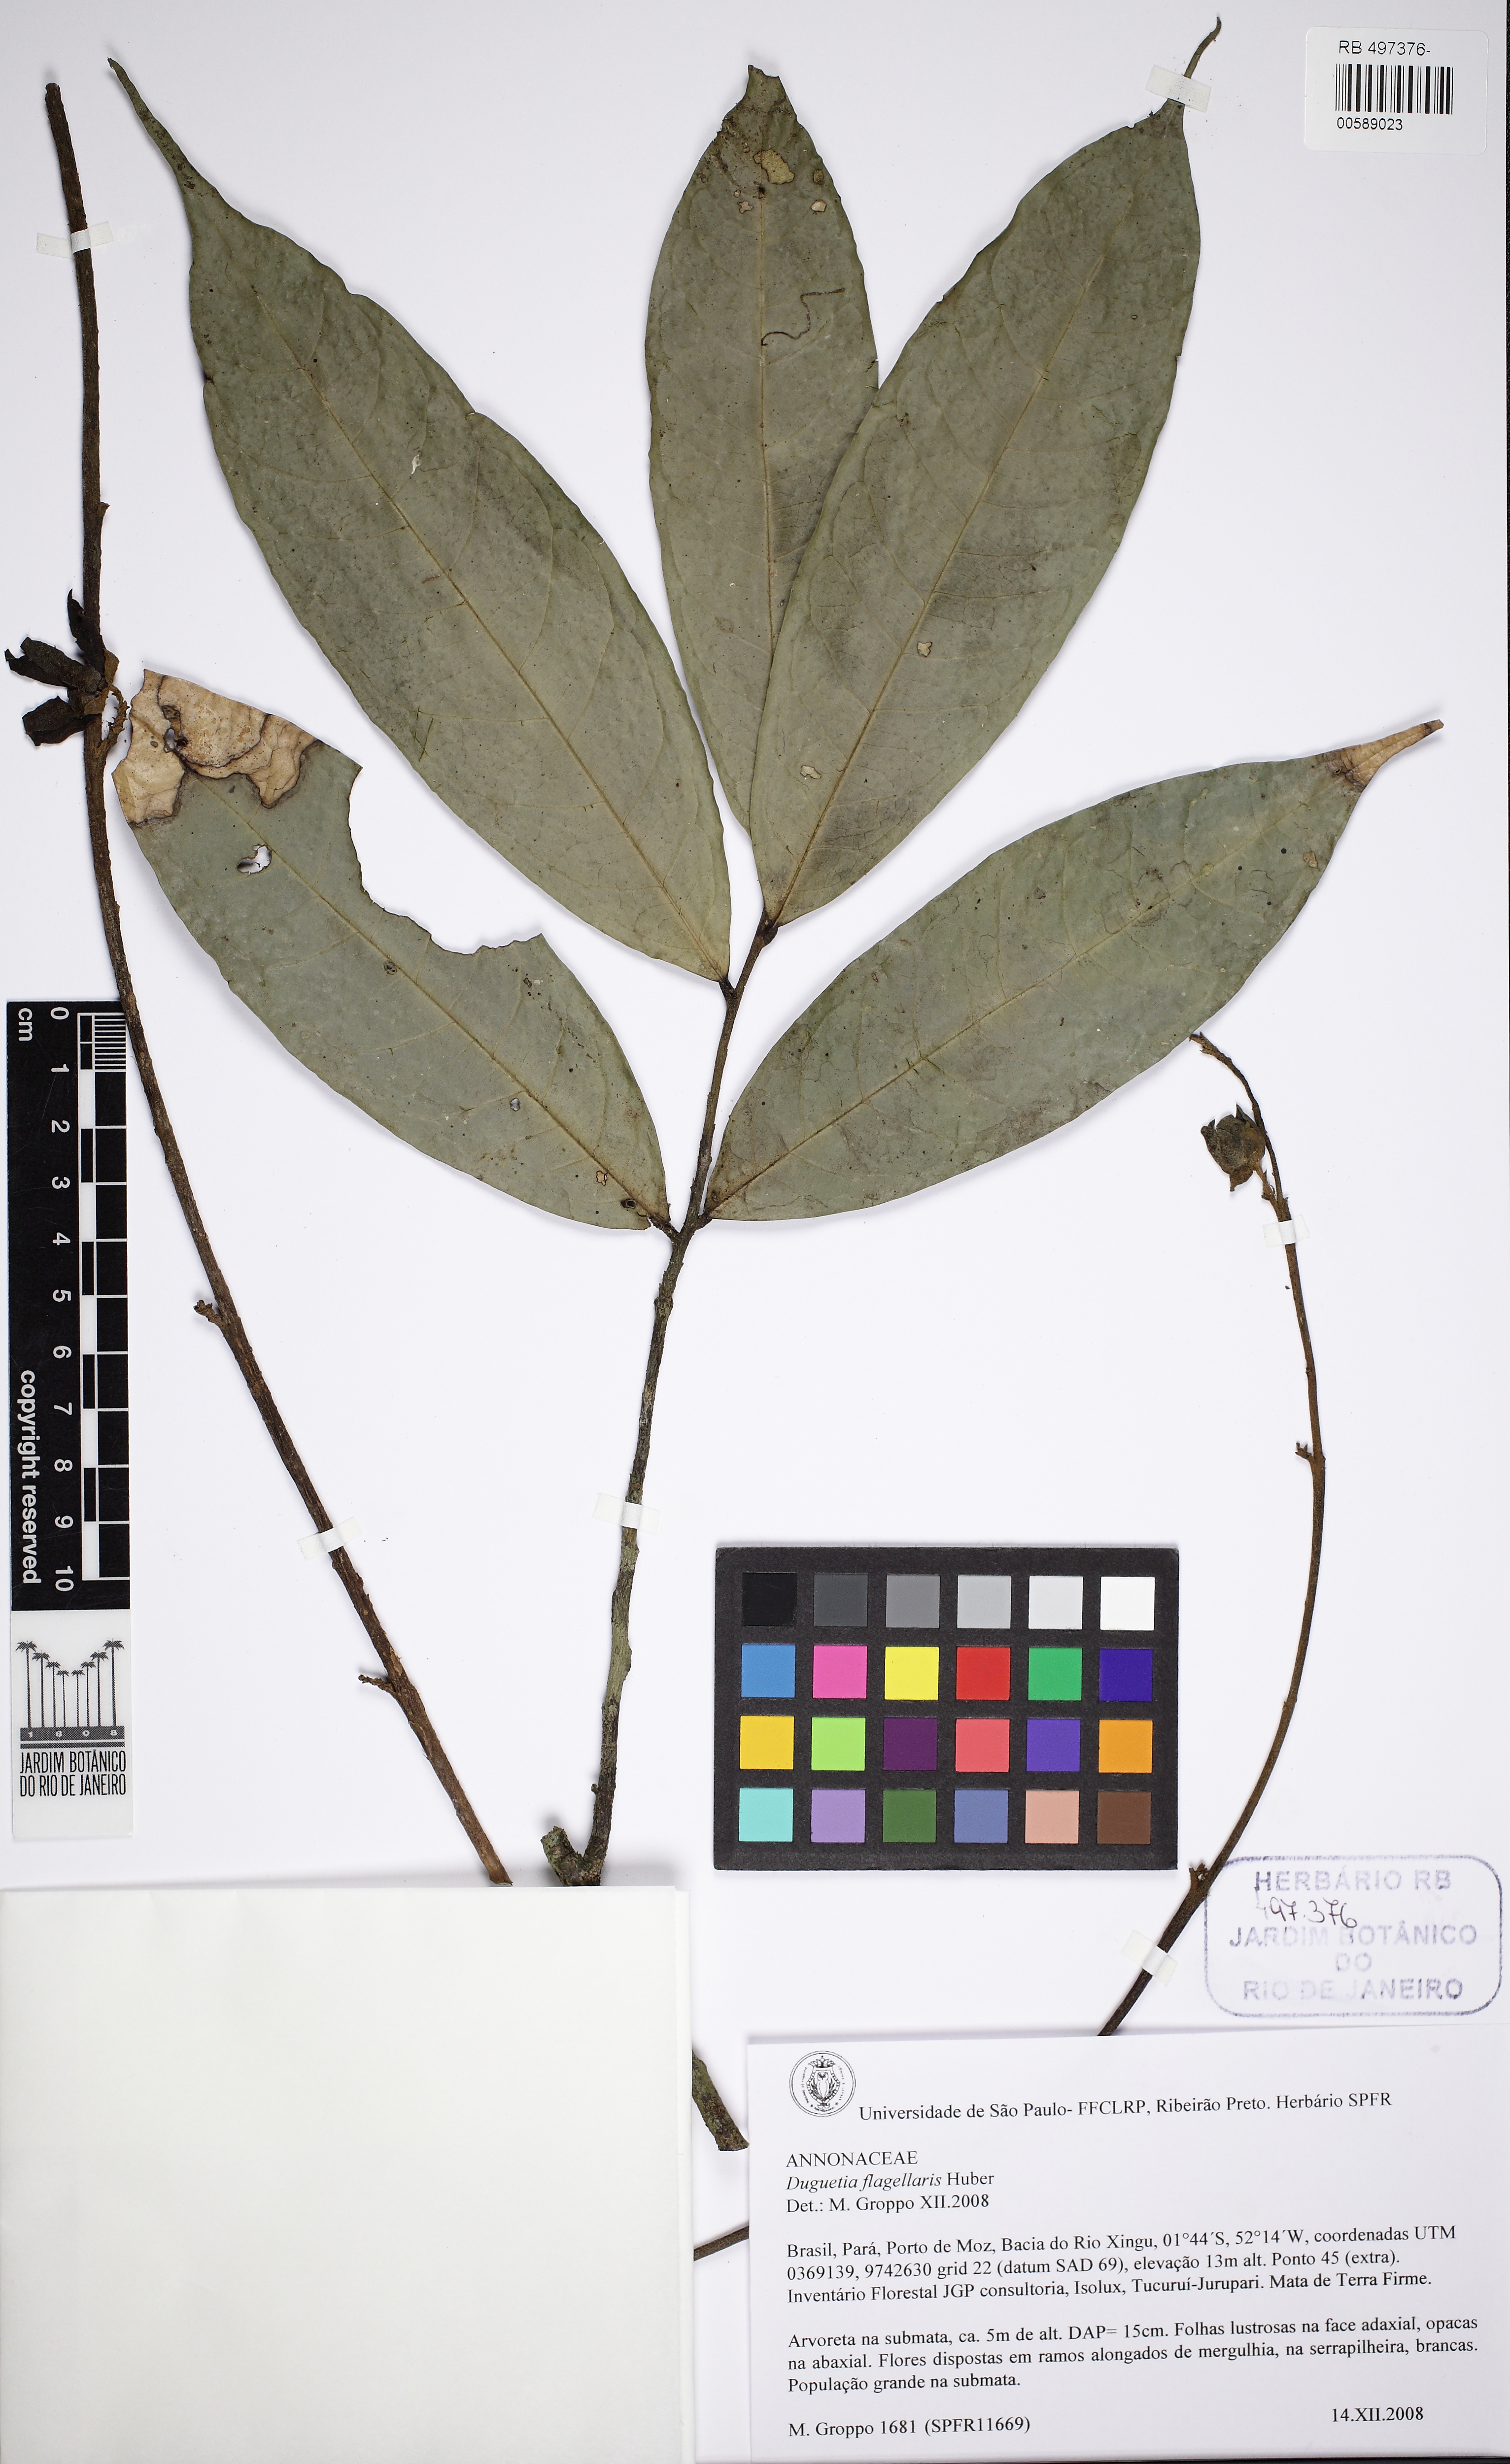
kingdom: Plantae
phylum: Tracheophyta
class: Magnoliopsida
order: Magnoliales
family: Annonaceae
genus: Duguetia
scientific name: Duguetia flagellaris
